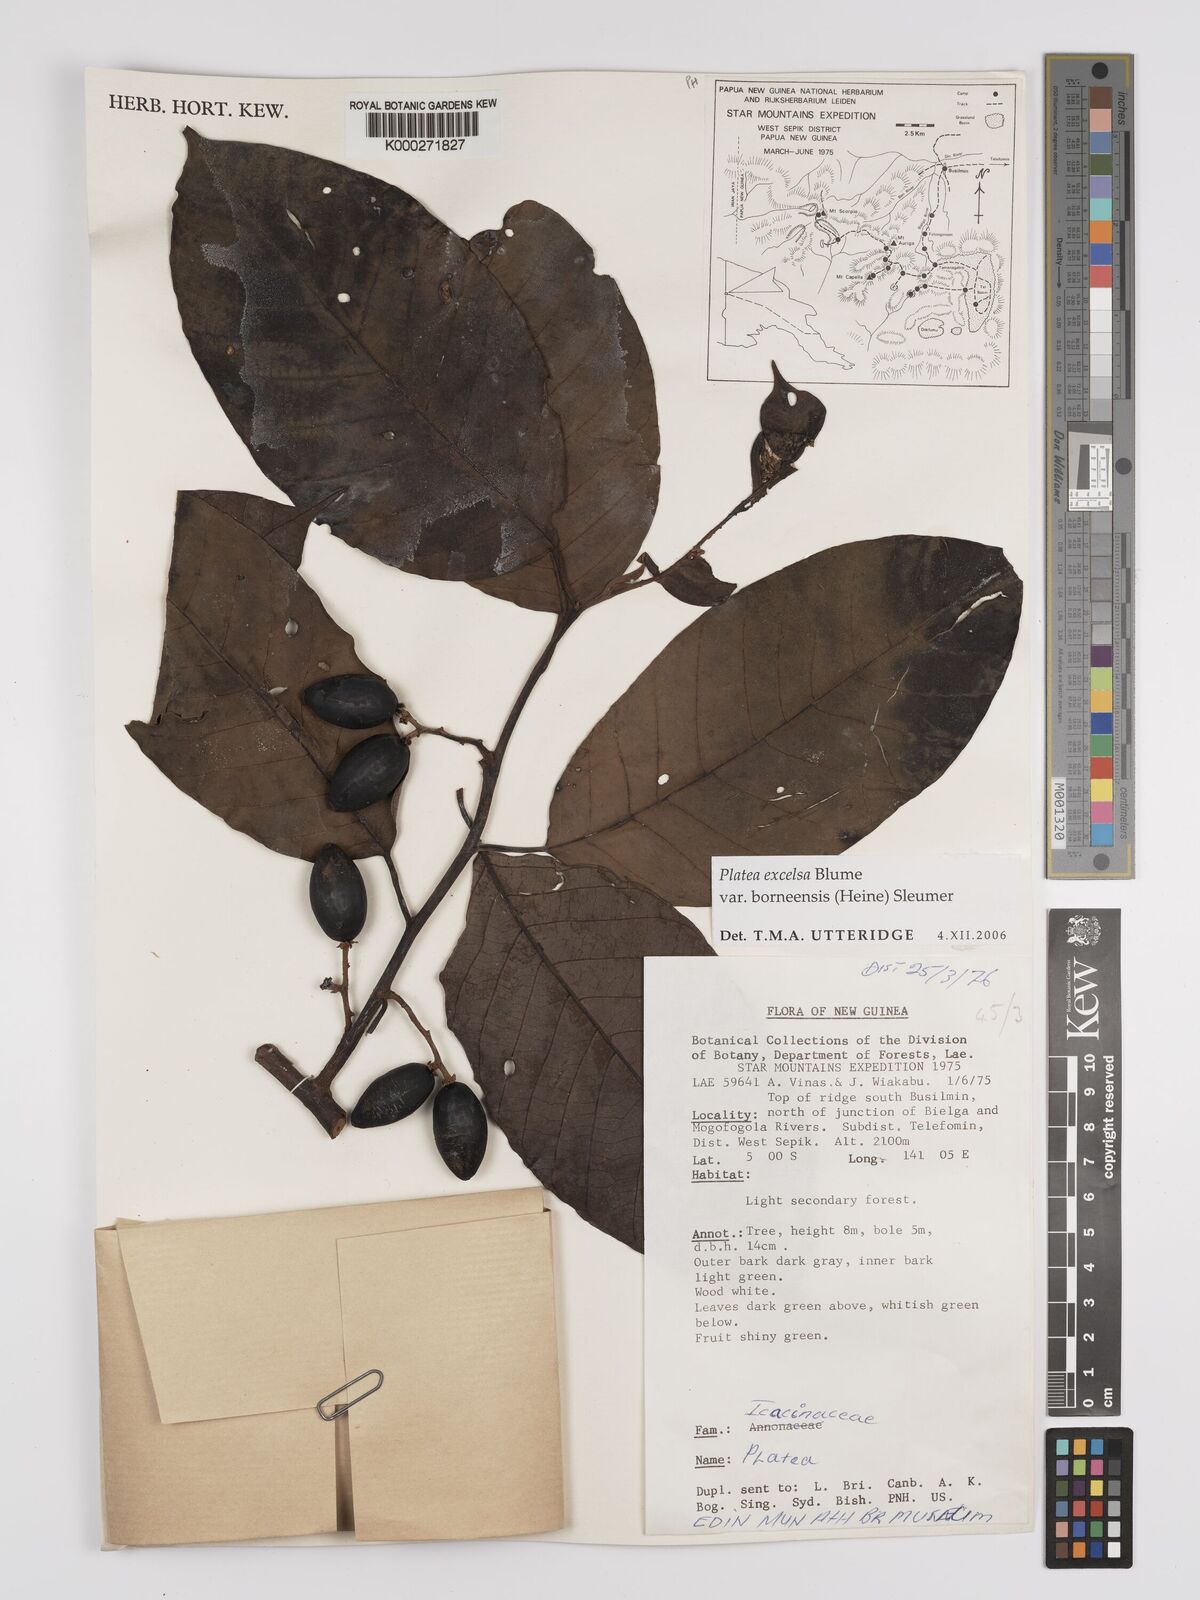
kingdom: Plantae
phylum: Tracheophyta
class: Magnoliopsida
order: Metteniusales
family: Metteniusaceae
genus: Platea
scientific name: Platea excelsa
